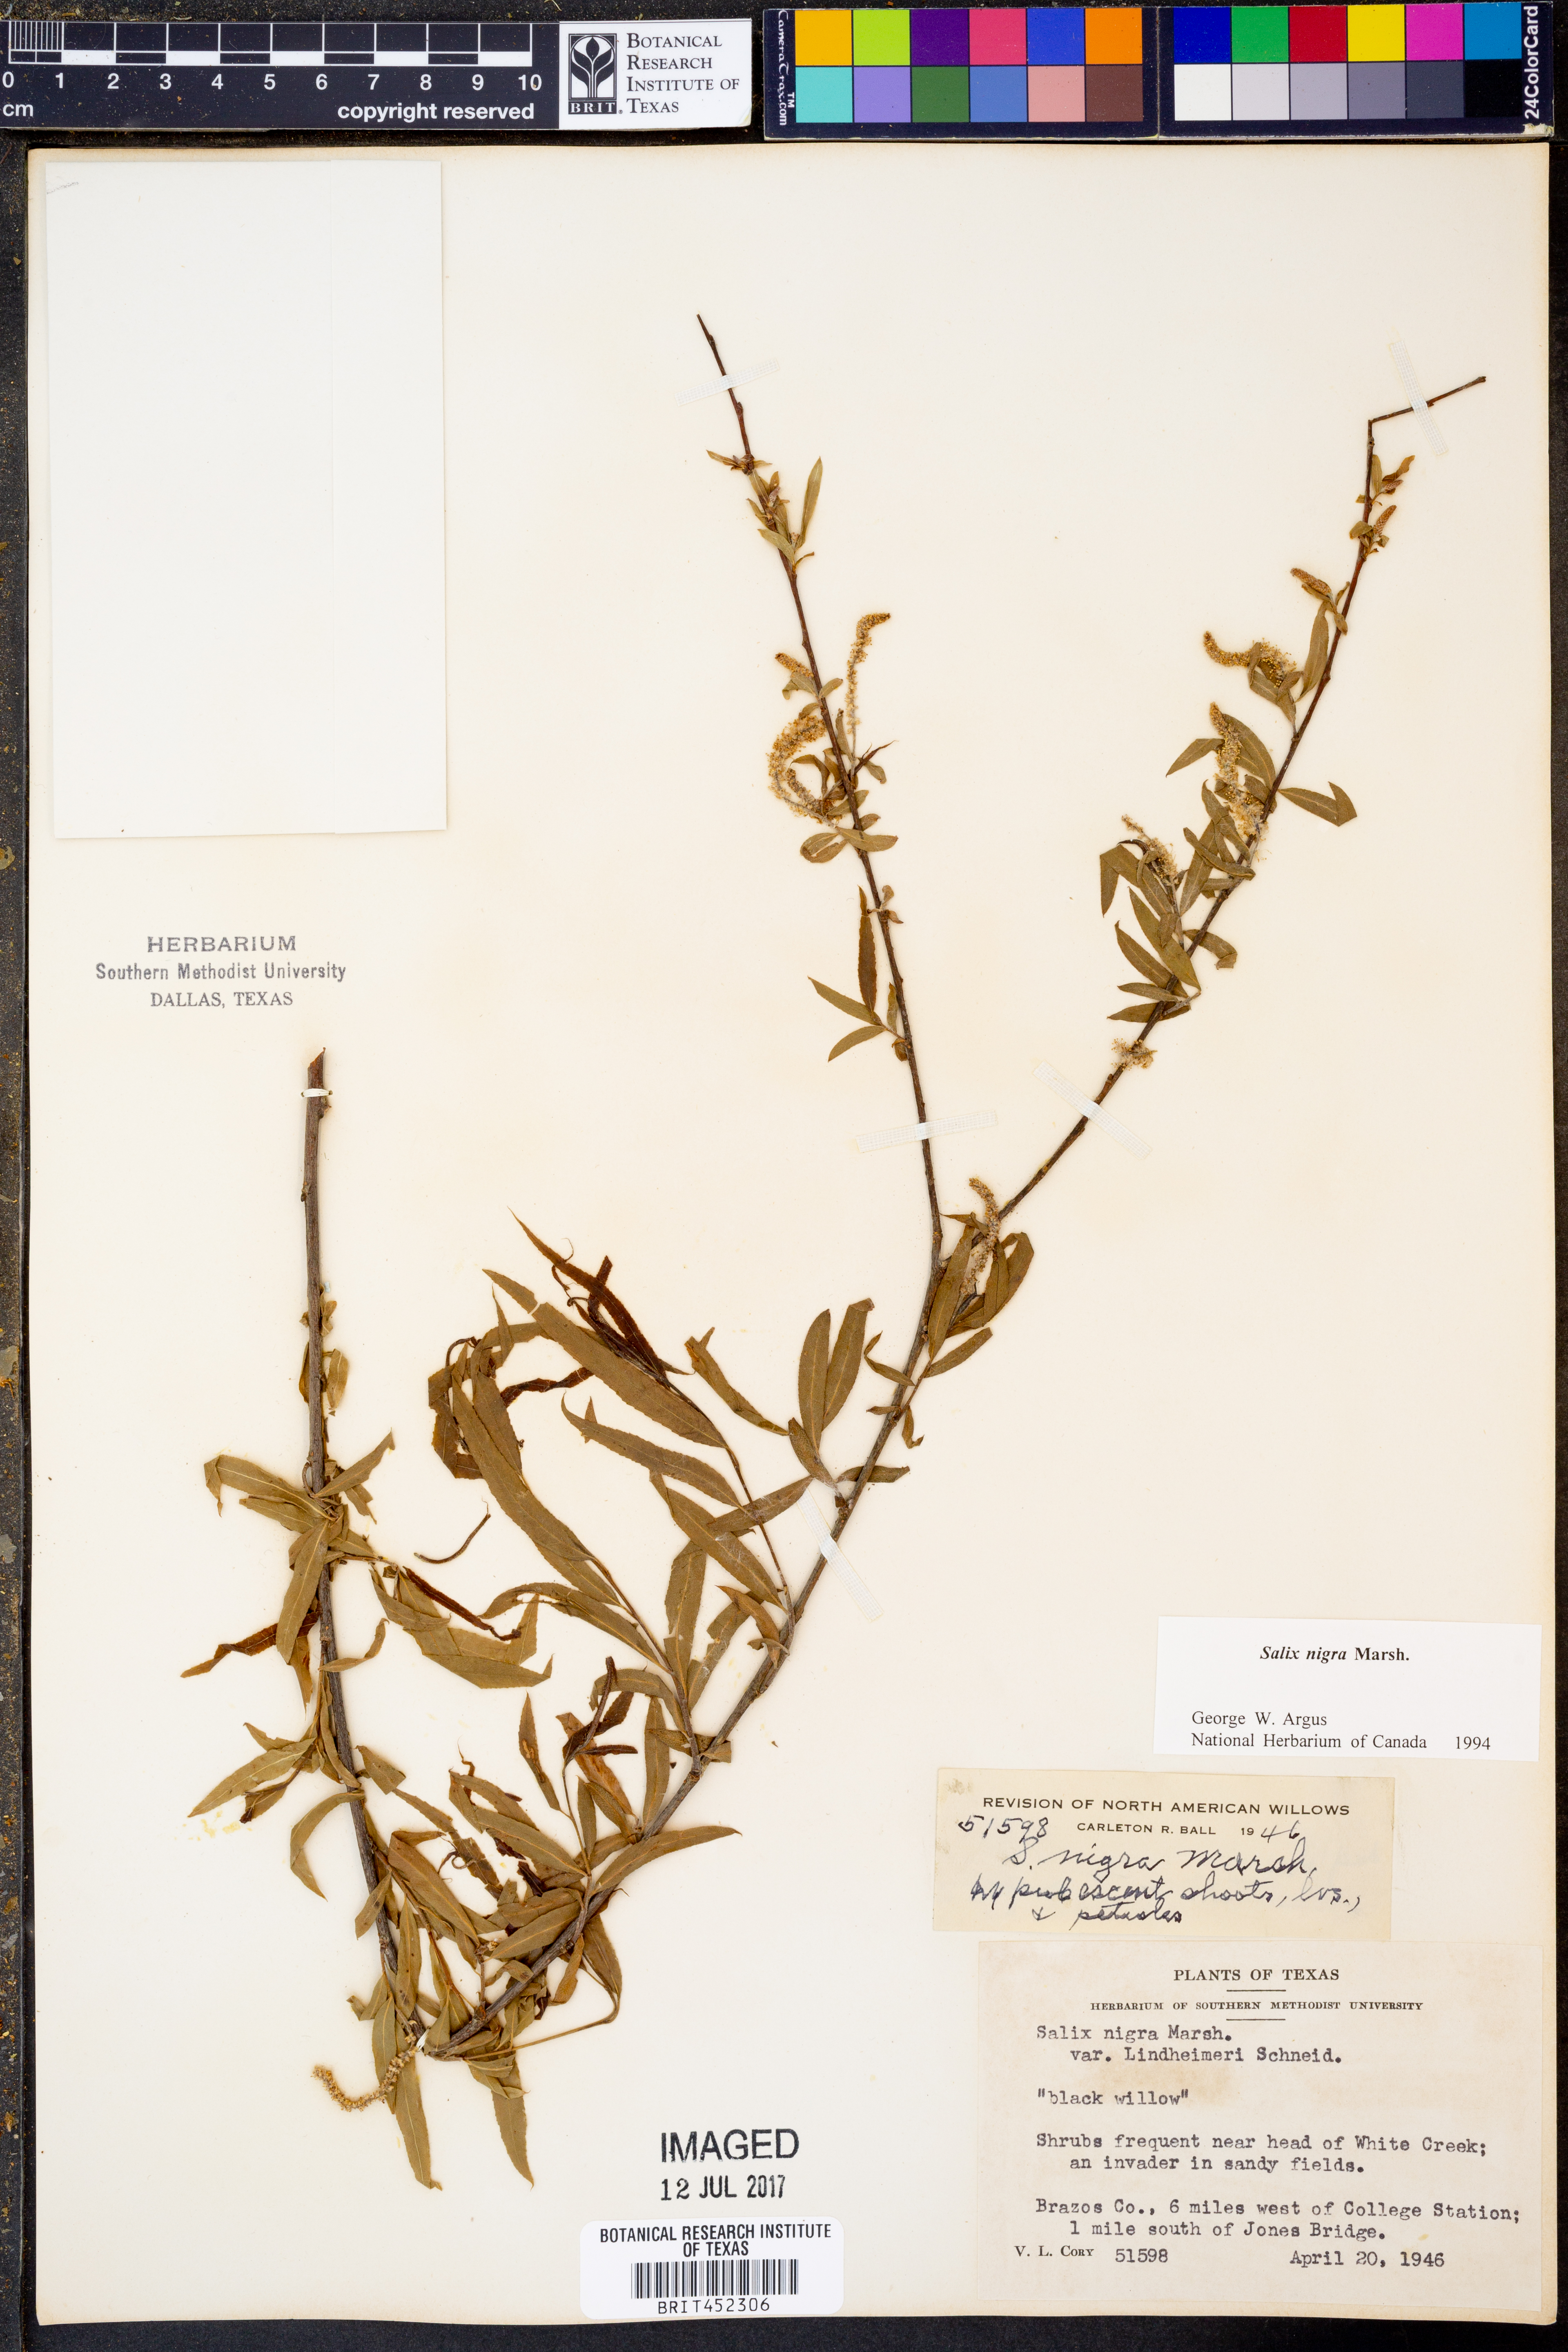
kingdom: Plantae
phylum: Tracheophyta
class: Magnoliopsida
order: Malpighiales
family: Salicaceae
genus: Salix
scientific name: Salix nigra
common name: Black willow
